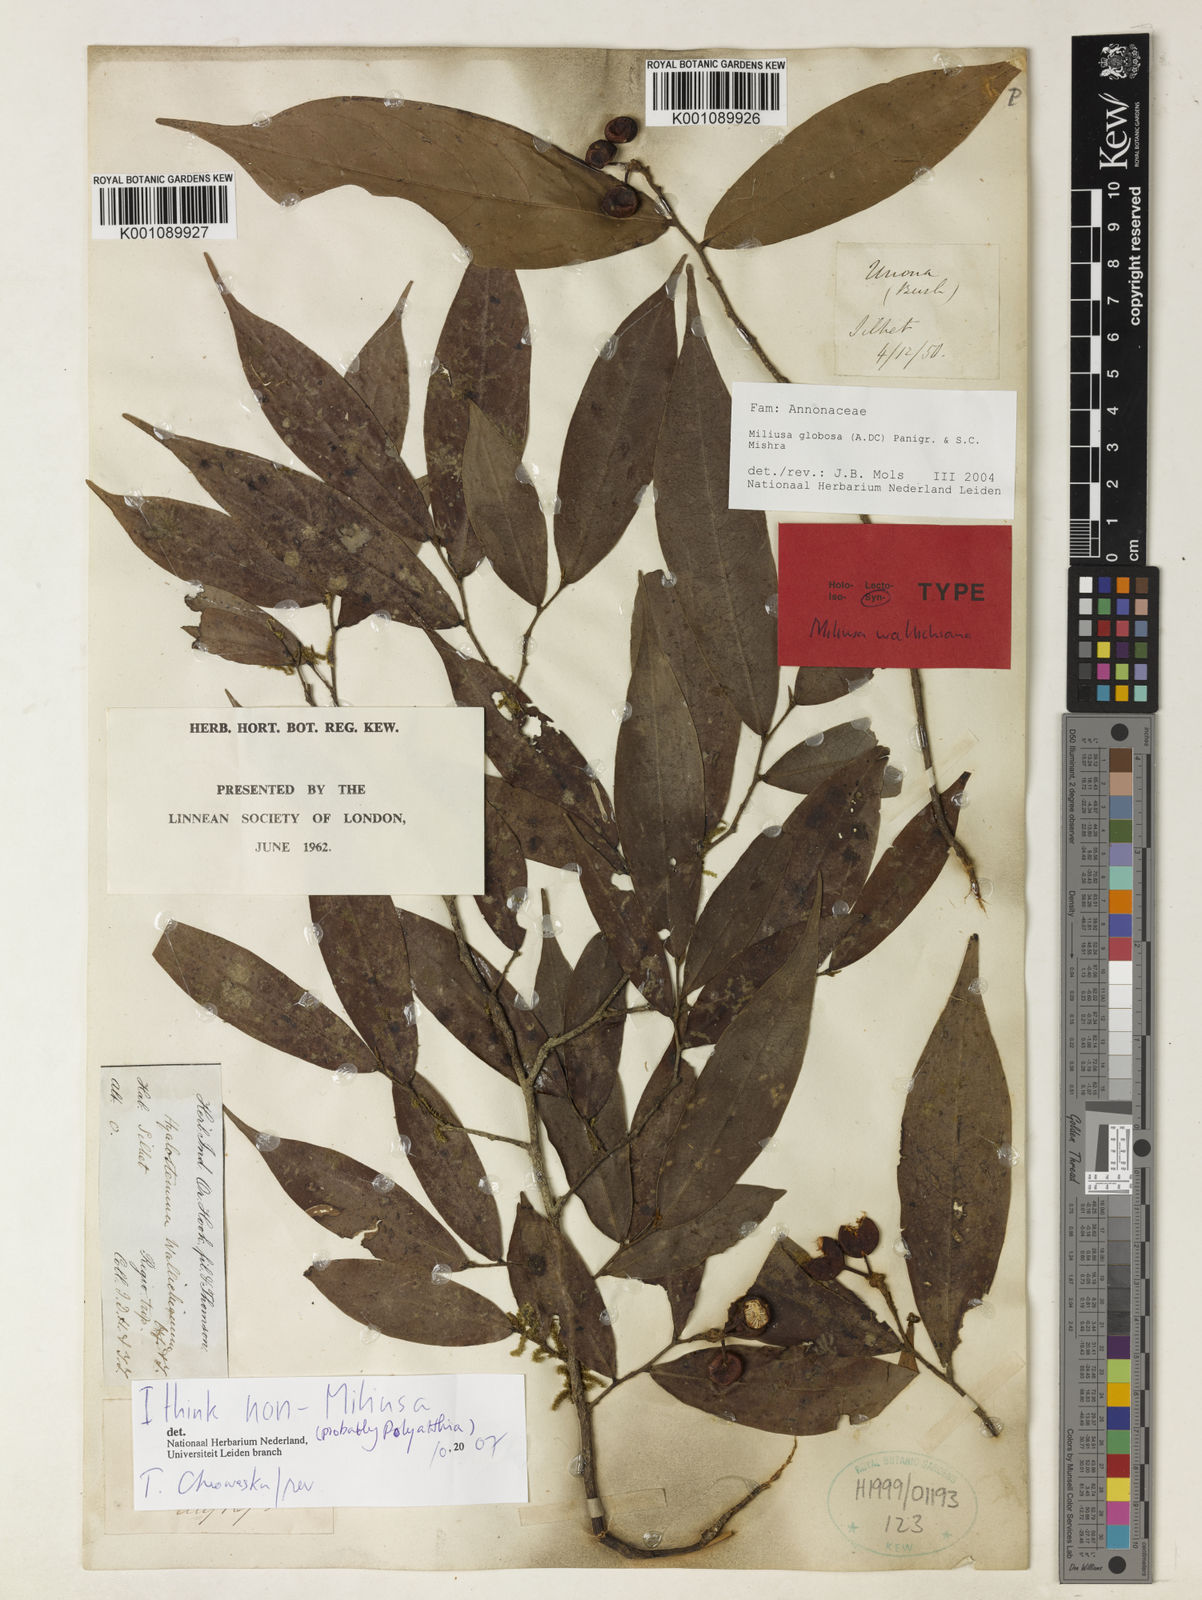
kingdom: Plantae
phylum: Tracheophyta
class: Magnoliopsida
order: Magnoliales
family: Annonaceae
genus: Miliusa
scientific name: Miliusa globosa
